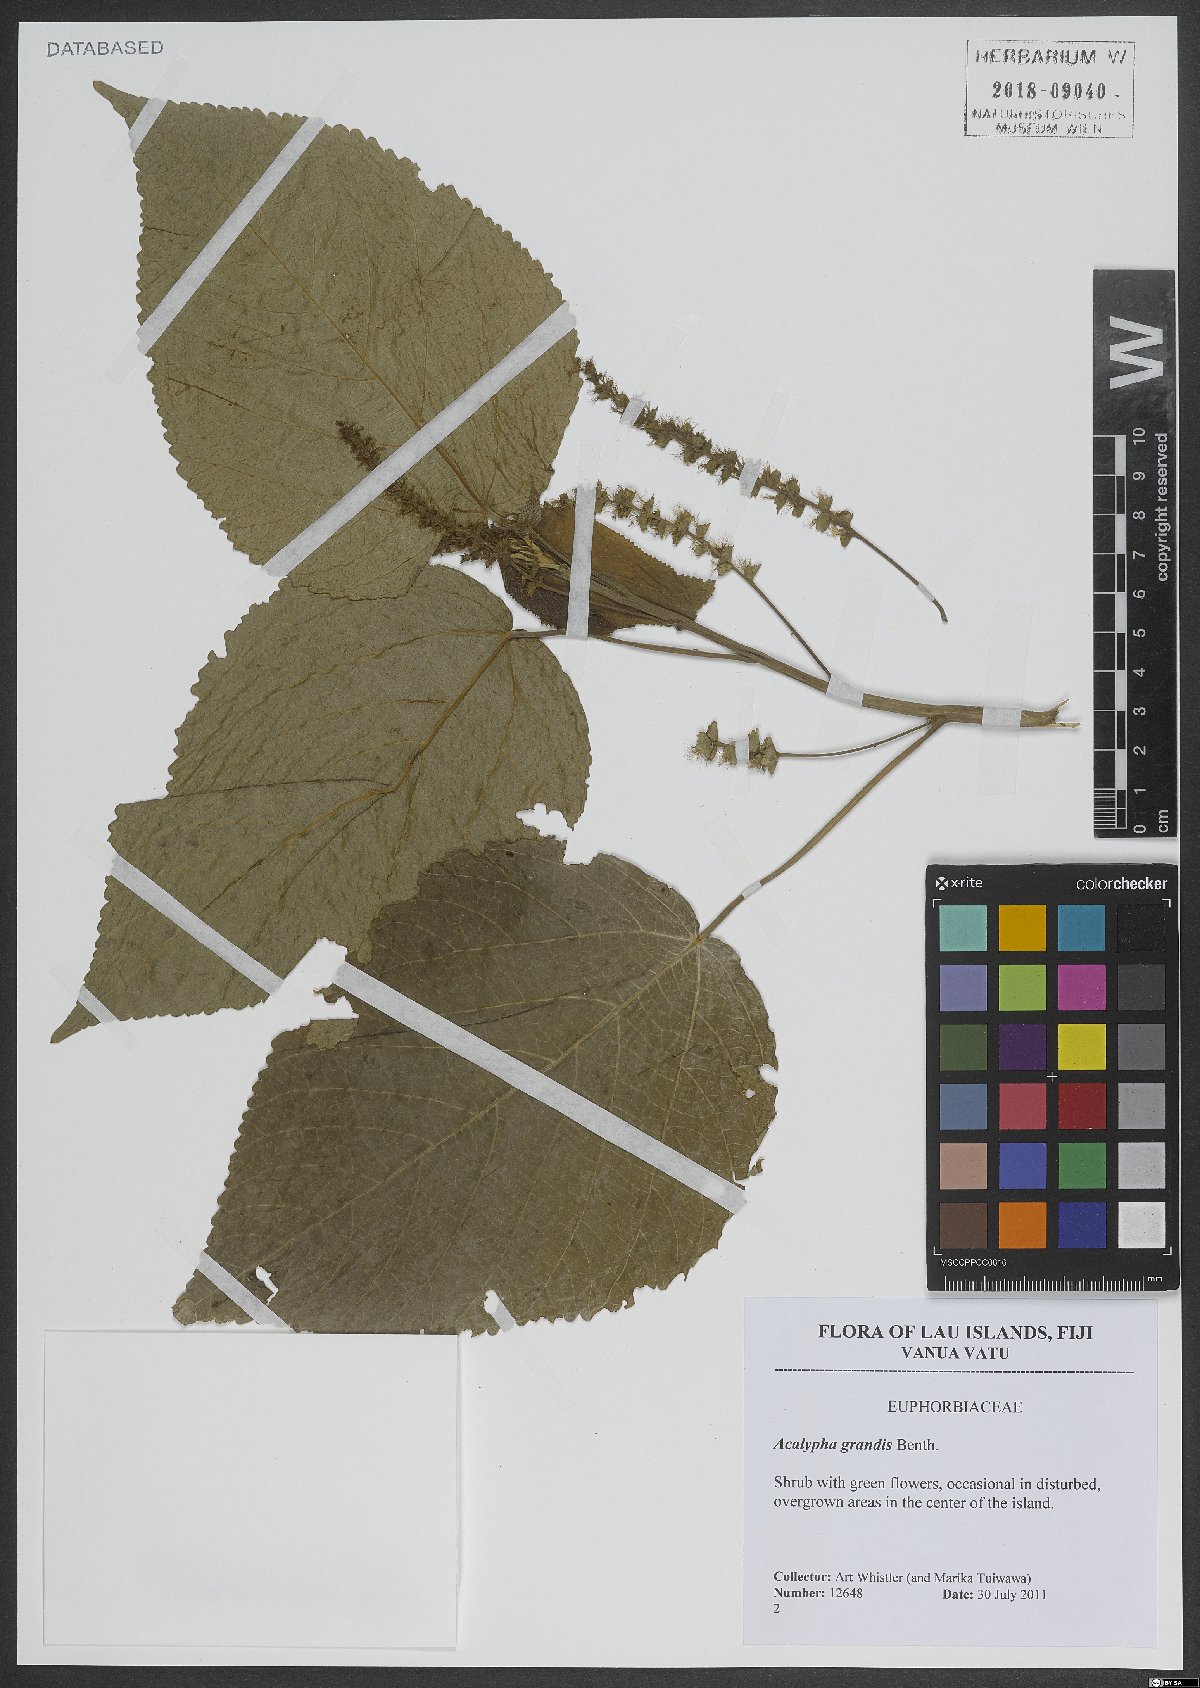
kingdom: Plantae
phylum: Tracheophyta
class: Magnoliopsida
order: Malpighiales
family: Euphorbiaceae
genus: Acalypha
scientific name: Acalypha grandis
